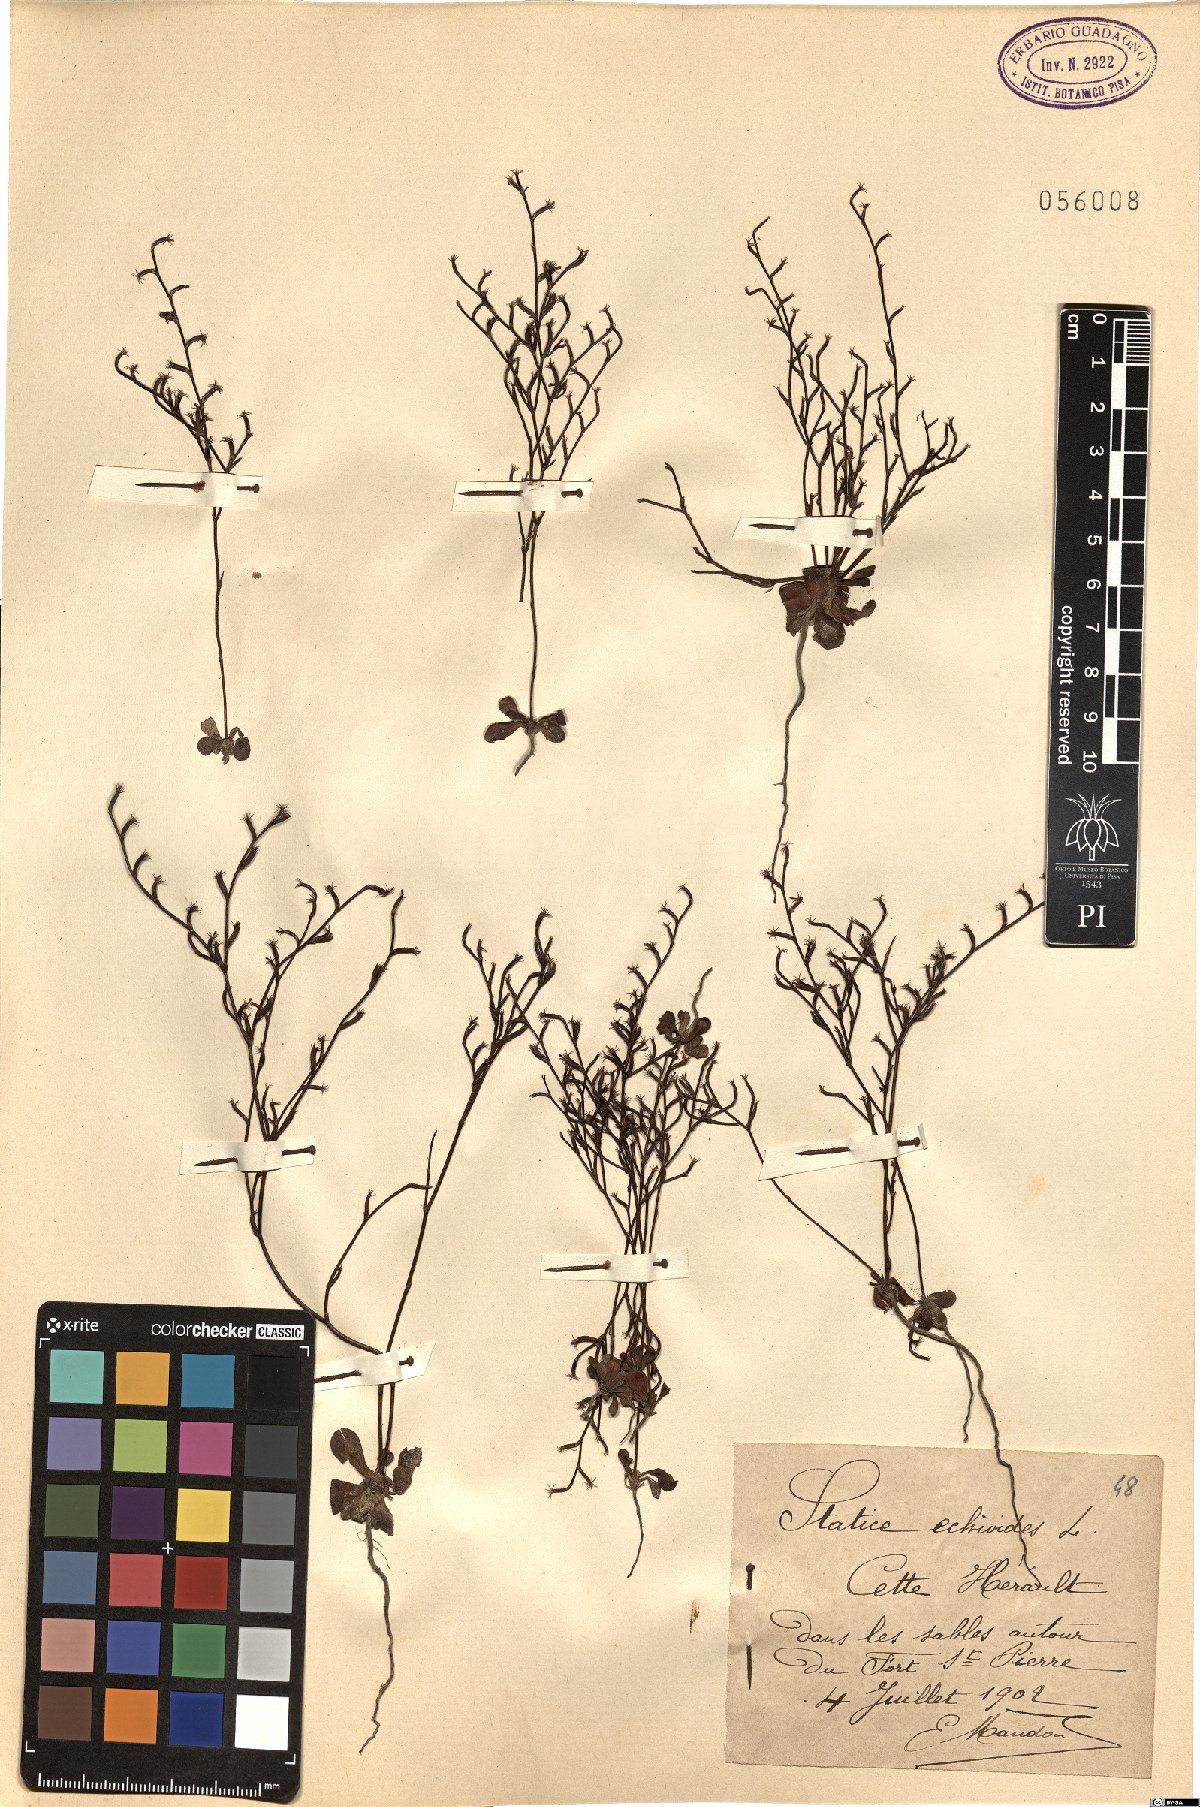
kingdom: Plantae
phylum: Tracheophyta
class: Magnoliopsida
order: Caryophyllales
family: Plumbaginaceae
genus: Limonium
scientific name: Limonium echioides
